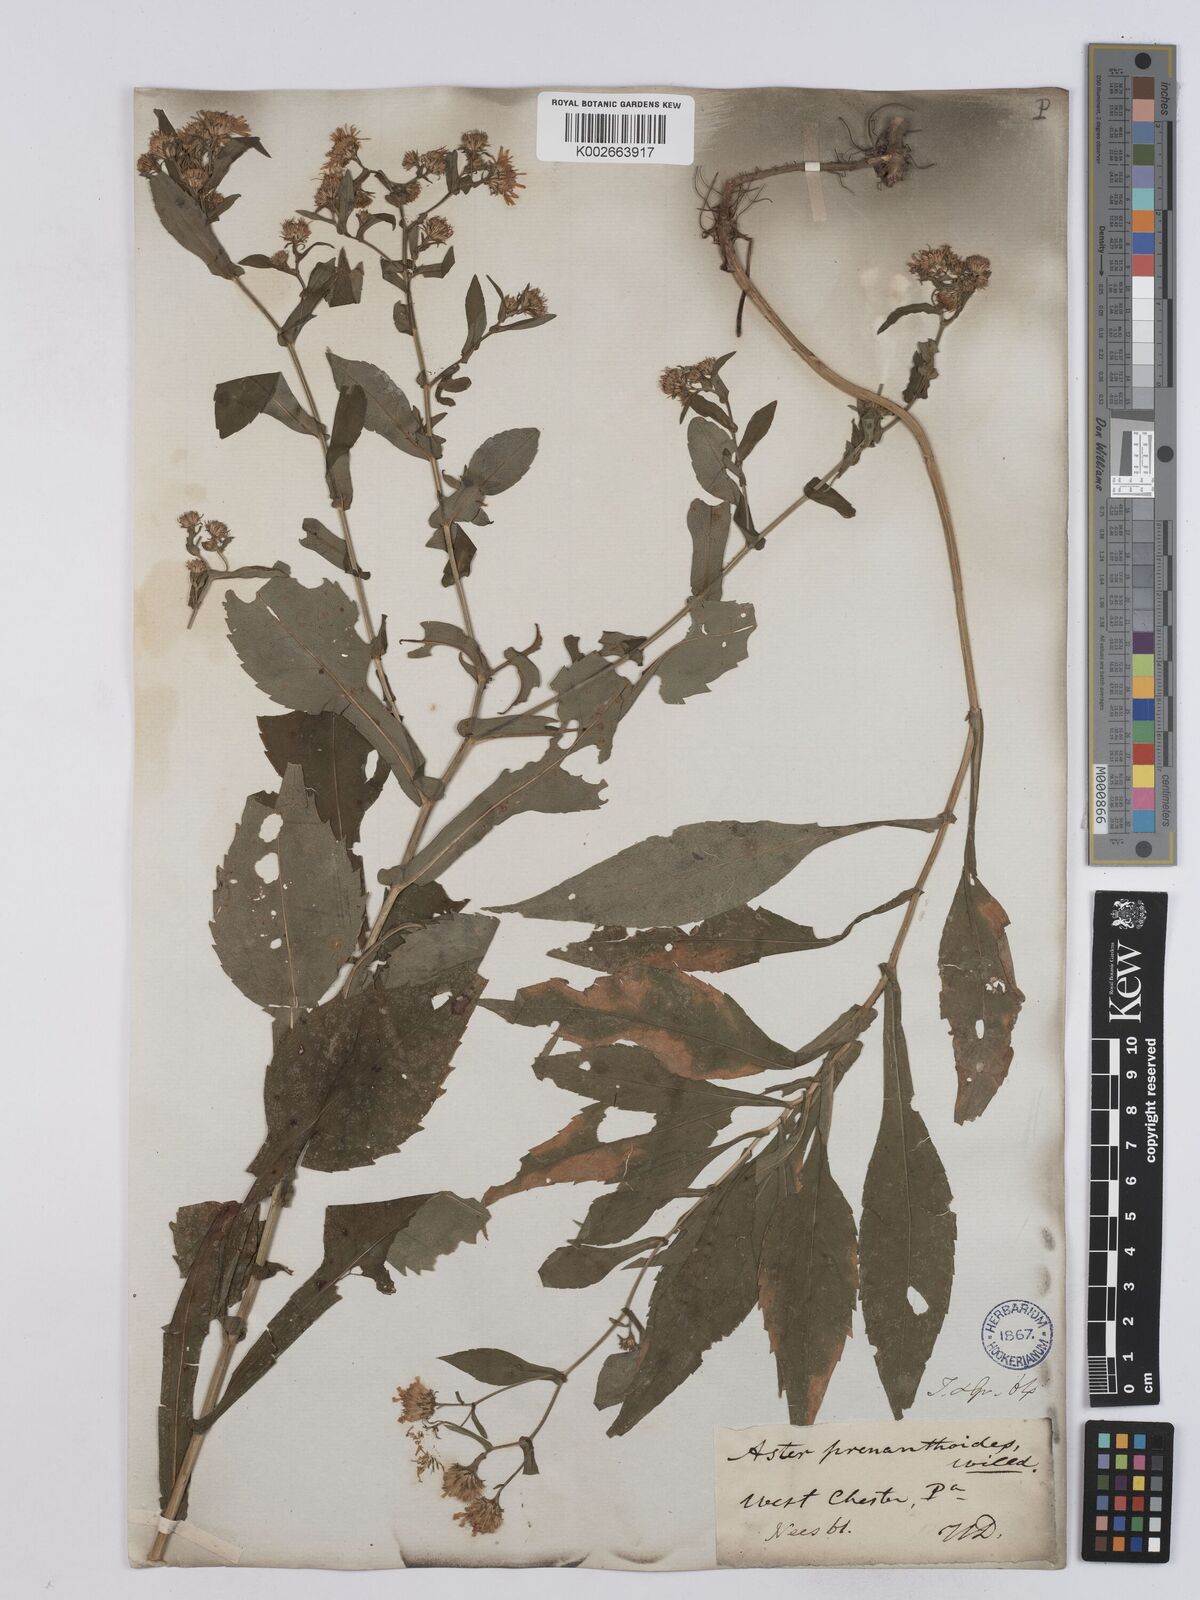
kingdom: Plantae
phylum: Tracheophyta
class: Magnoliopsida
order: Asterales
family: Asteraceae
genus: Symphyotrichum
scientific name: Symphyotrichum prenanthoides
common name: Crooked-stem aster
